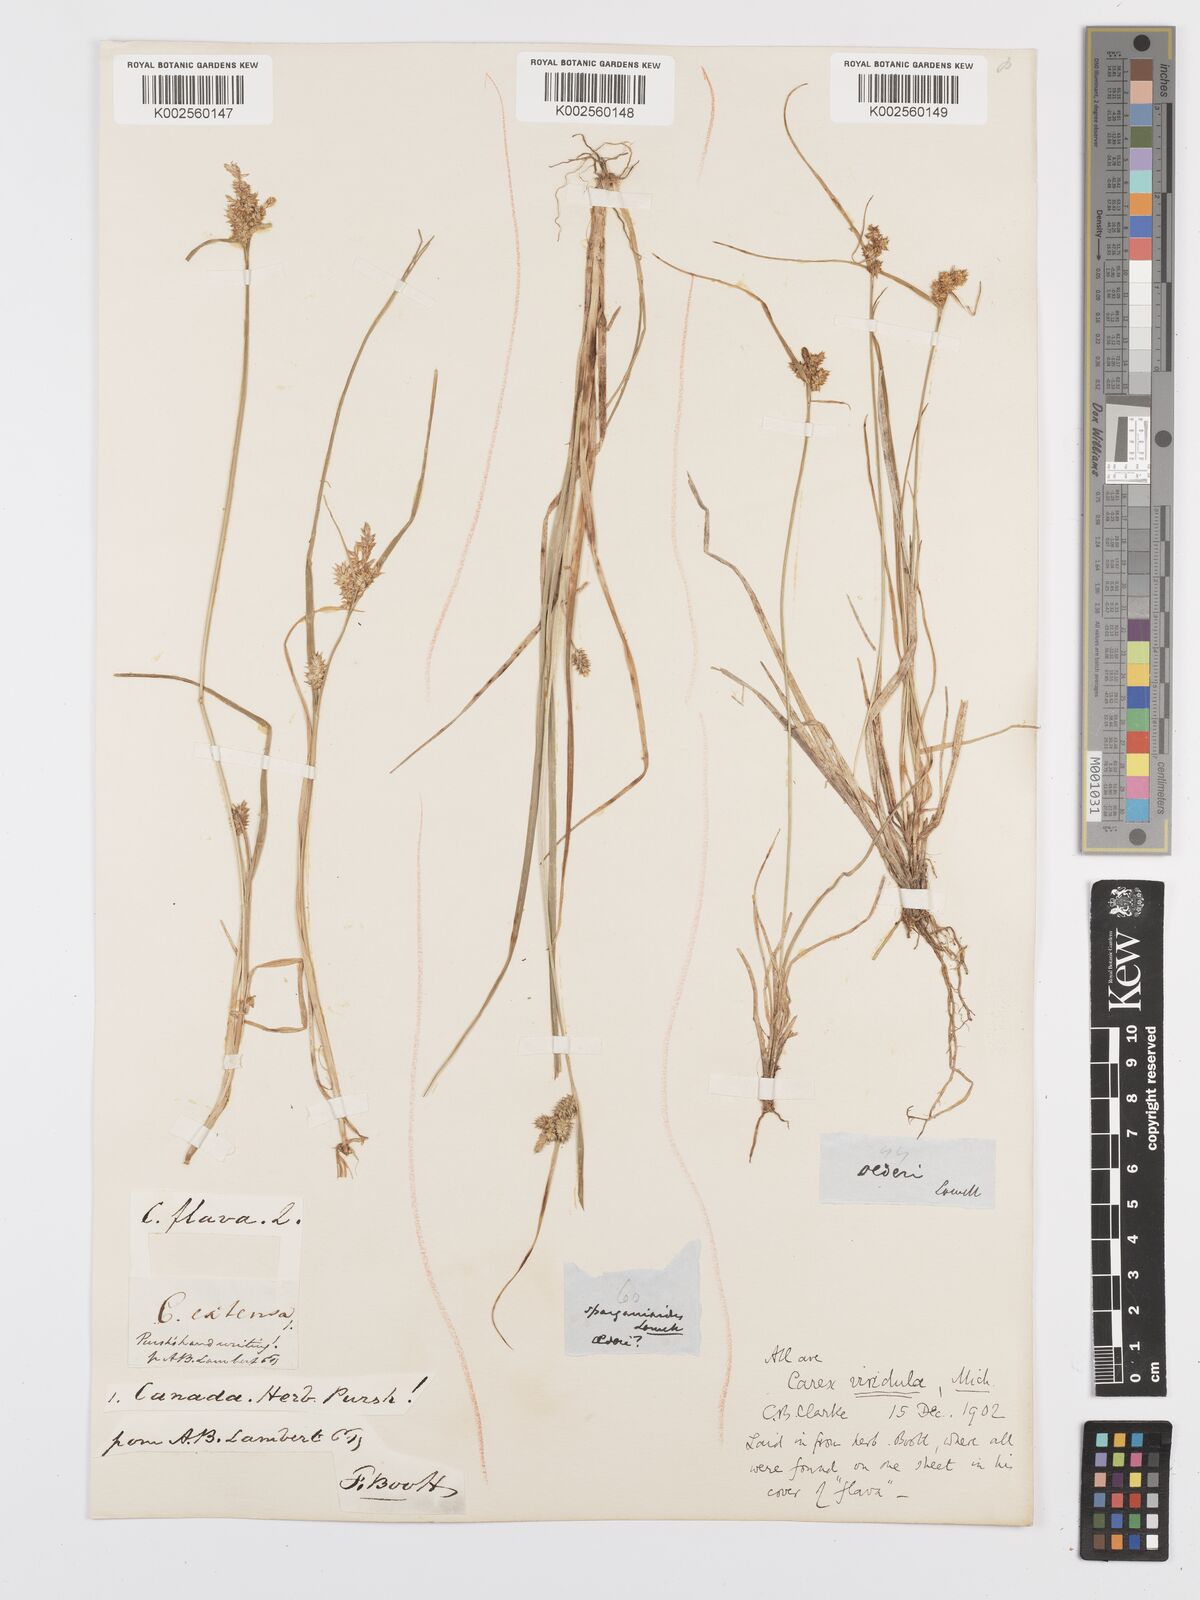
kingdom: Plantae
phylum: Tracheophyta
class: Liliopsida
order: Poales
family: Cyperaceae
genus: Carex
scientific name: Carex oederi
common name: Common & small-fruited yellow-sedge
